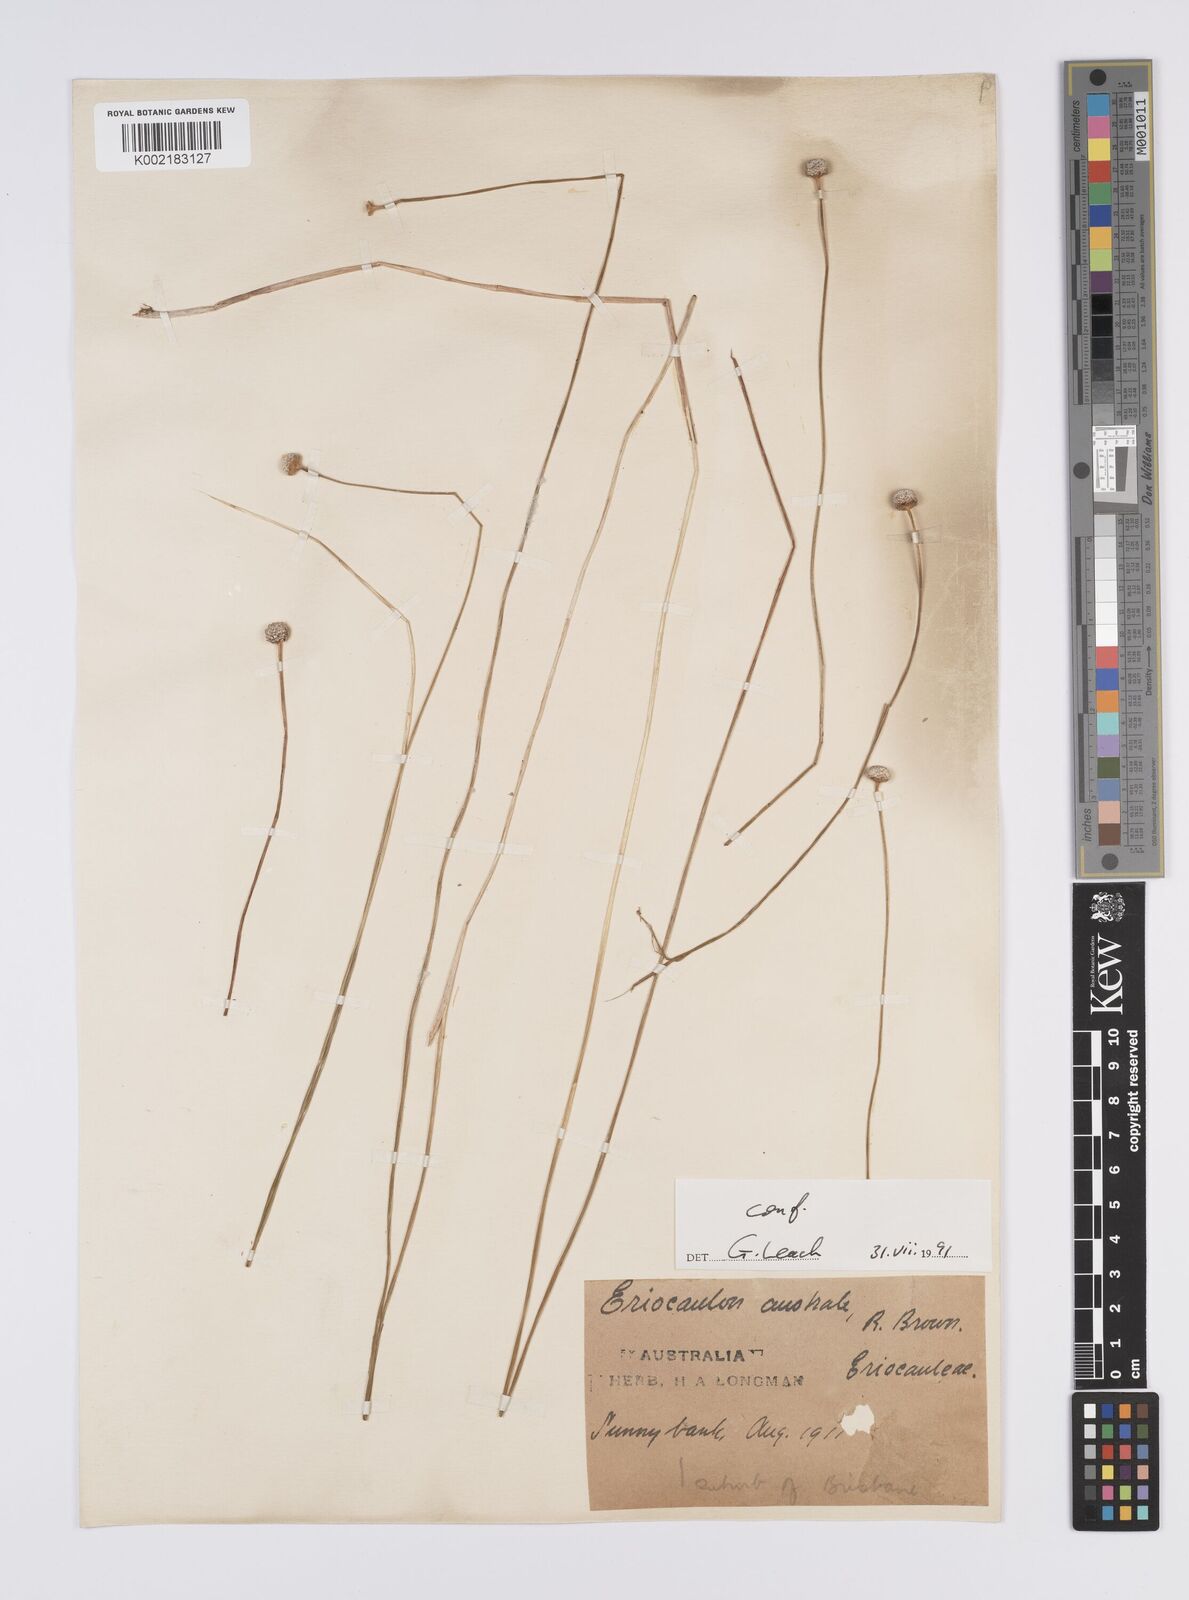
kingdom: Plantae
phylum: Tracheophyta
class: Liliopsida
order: Poales
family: Eriocaulaceae
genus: Eriocaulon
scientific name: Eriocaulon australe
